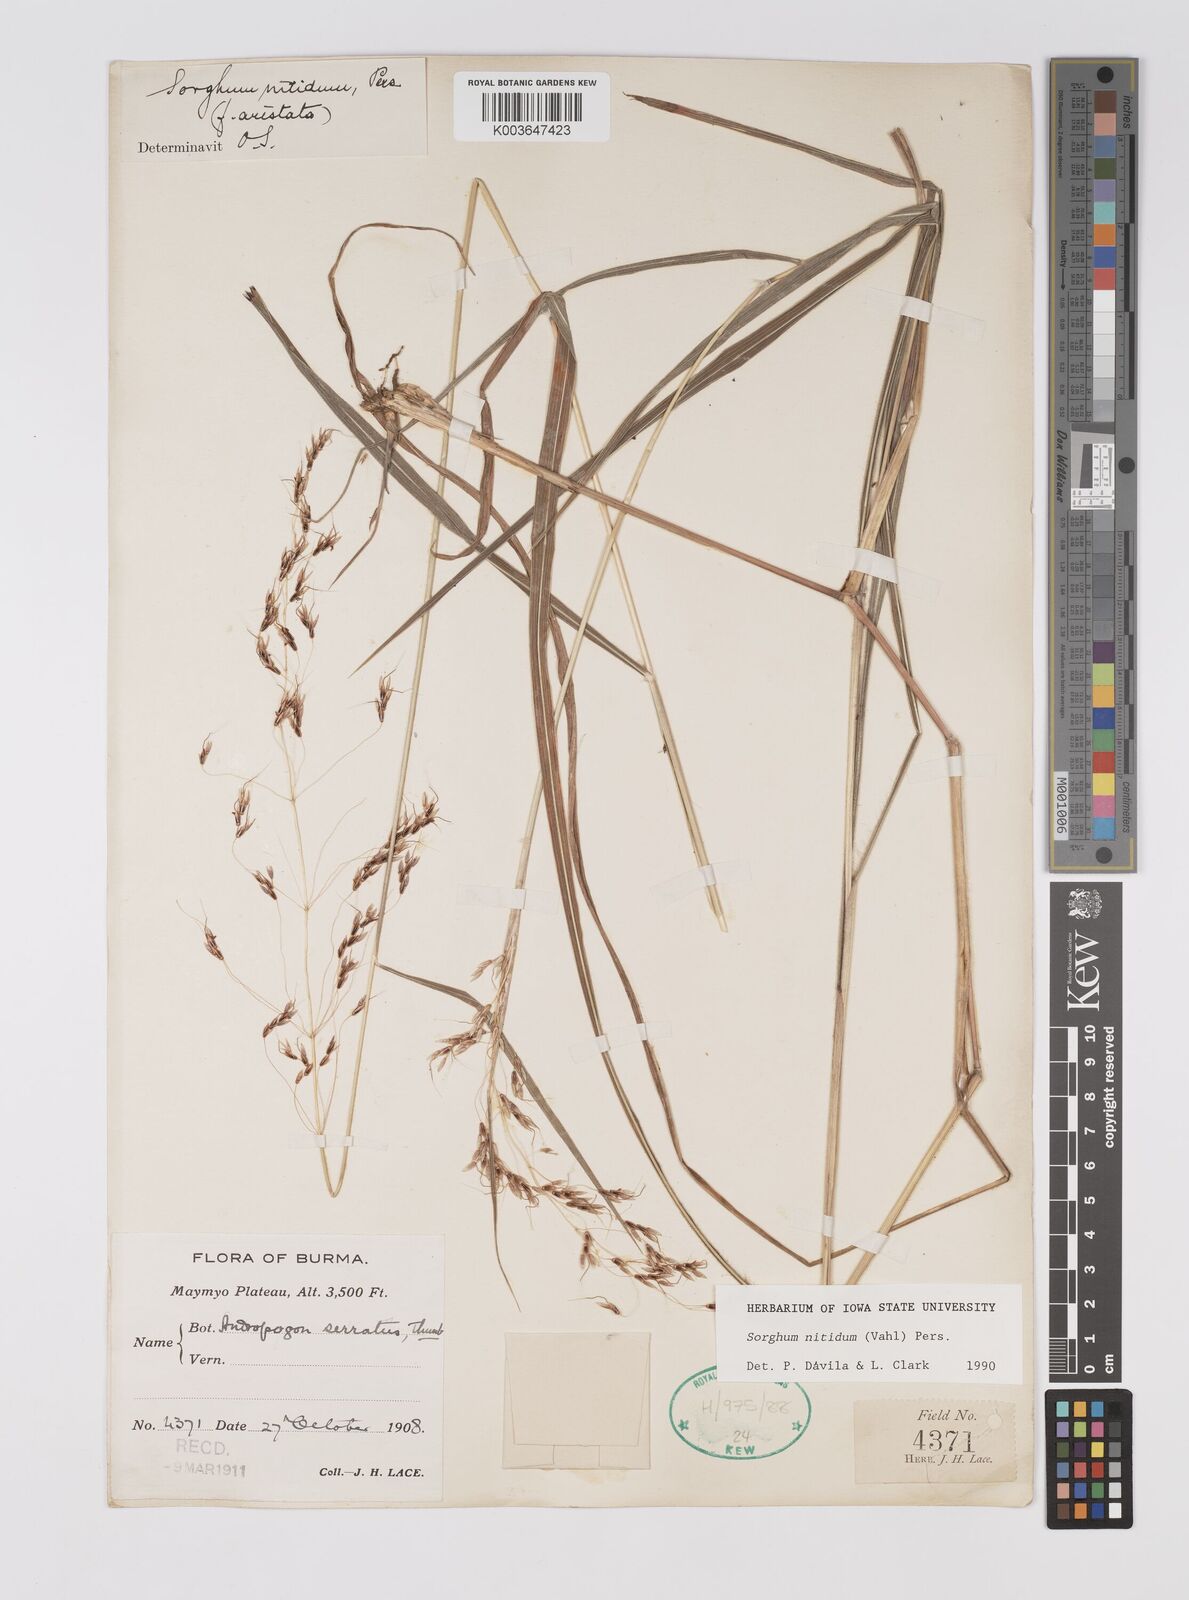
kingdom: Plantae
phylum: Tracheophyta
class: Liliopsida
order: Poales
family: Poaceae
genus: Sorghum
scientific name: Sorghum nitidum
